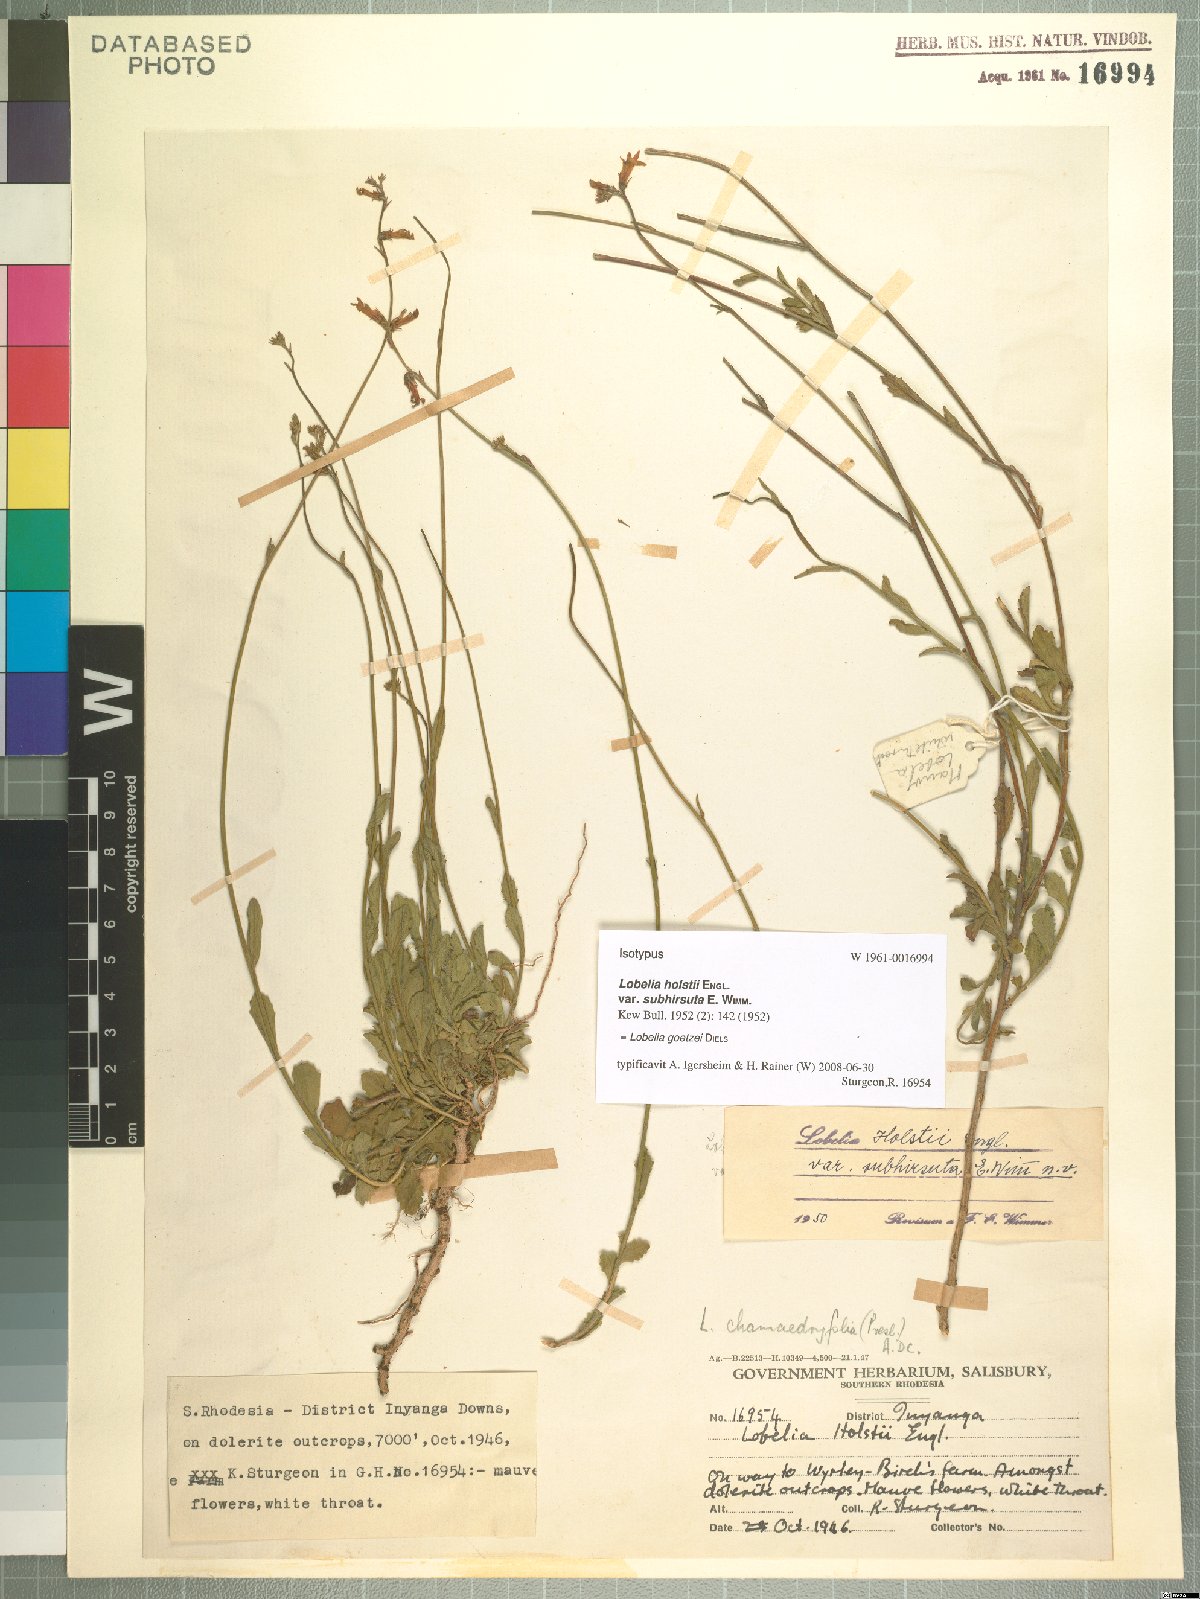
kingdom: Plantae
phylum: Tracheophyta
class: Magnoliopsida
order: Asterales
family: Campanulaceae
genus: Lobelia
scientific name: Lobelia goetzei
